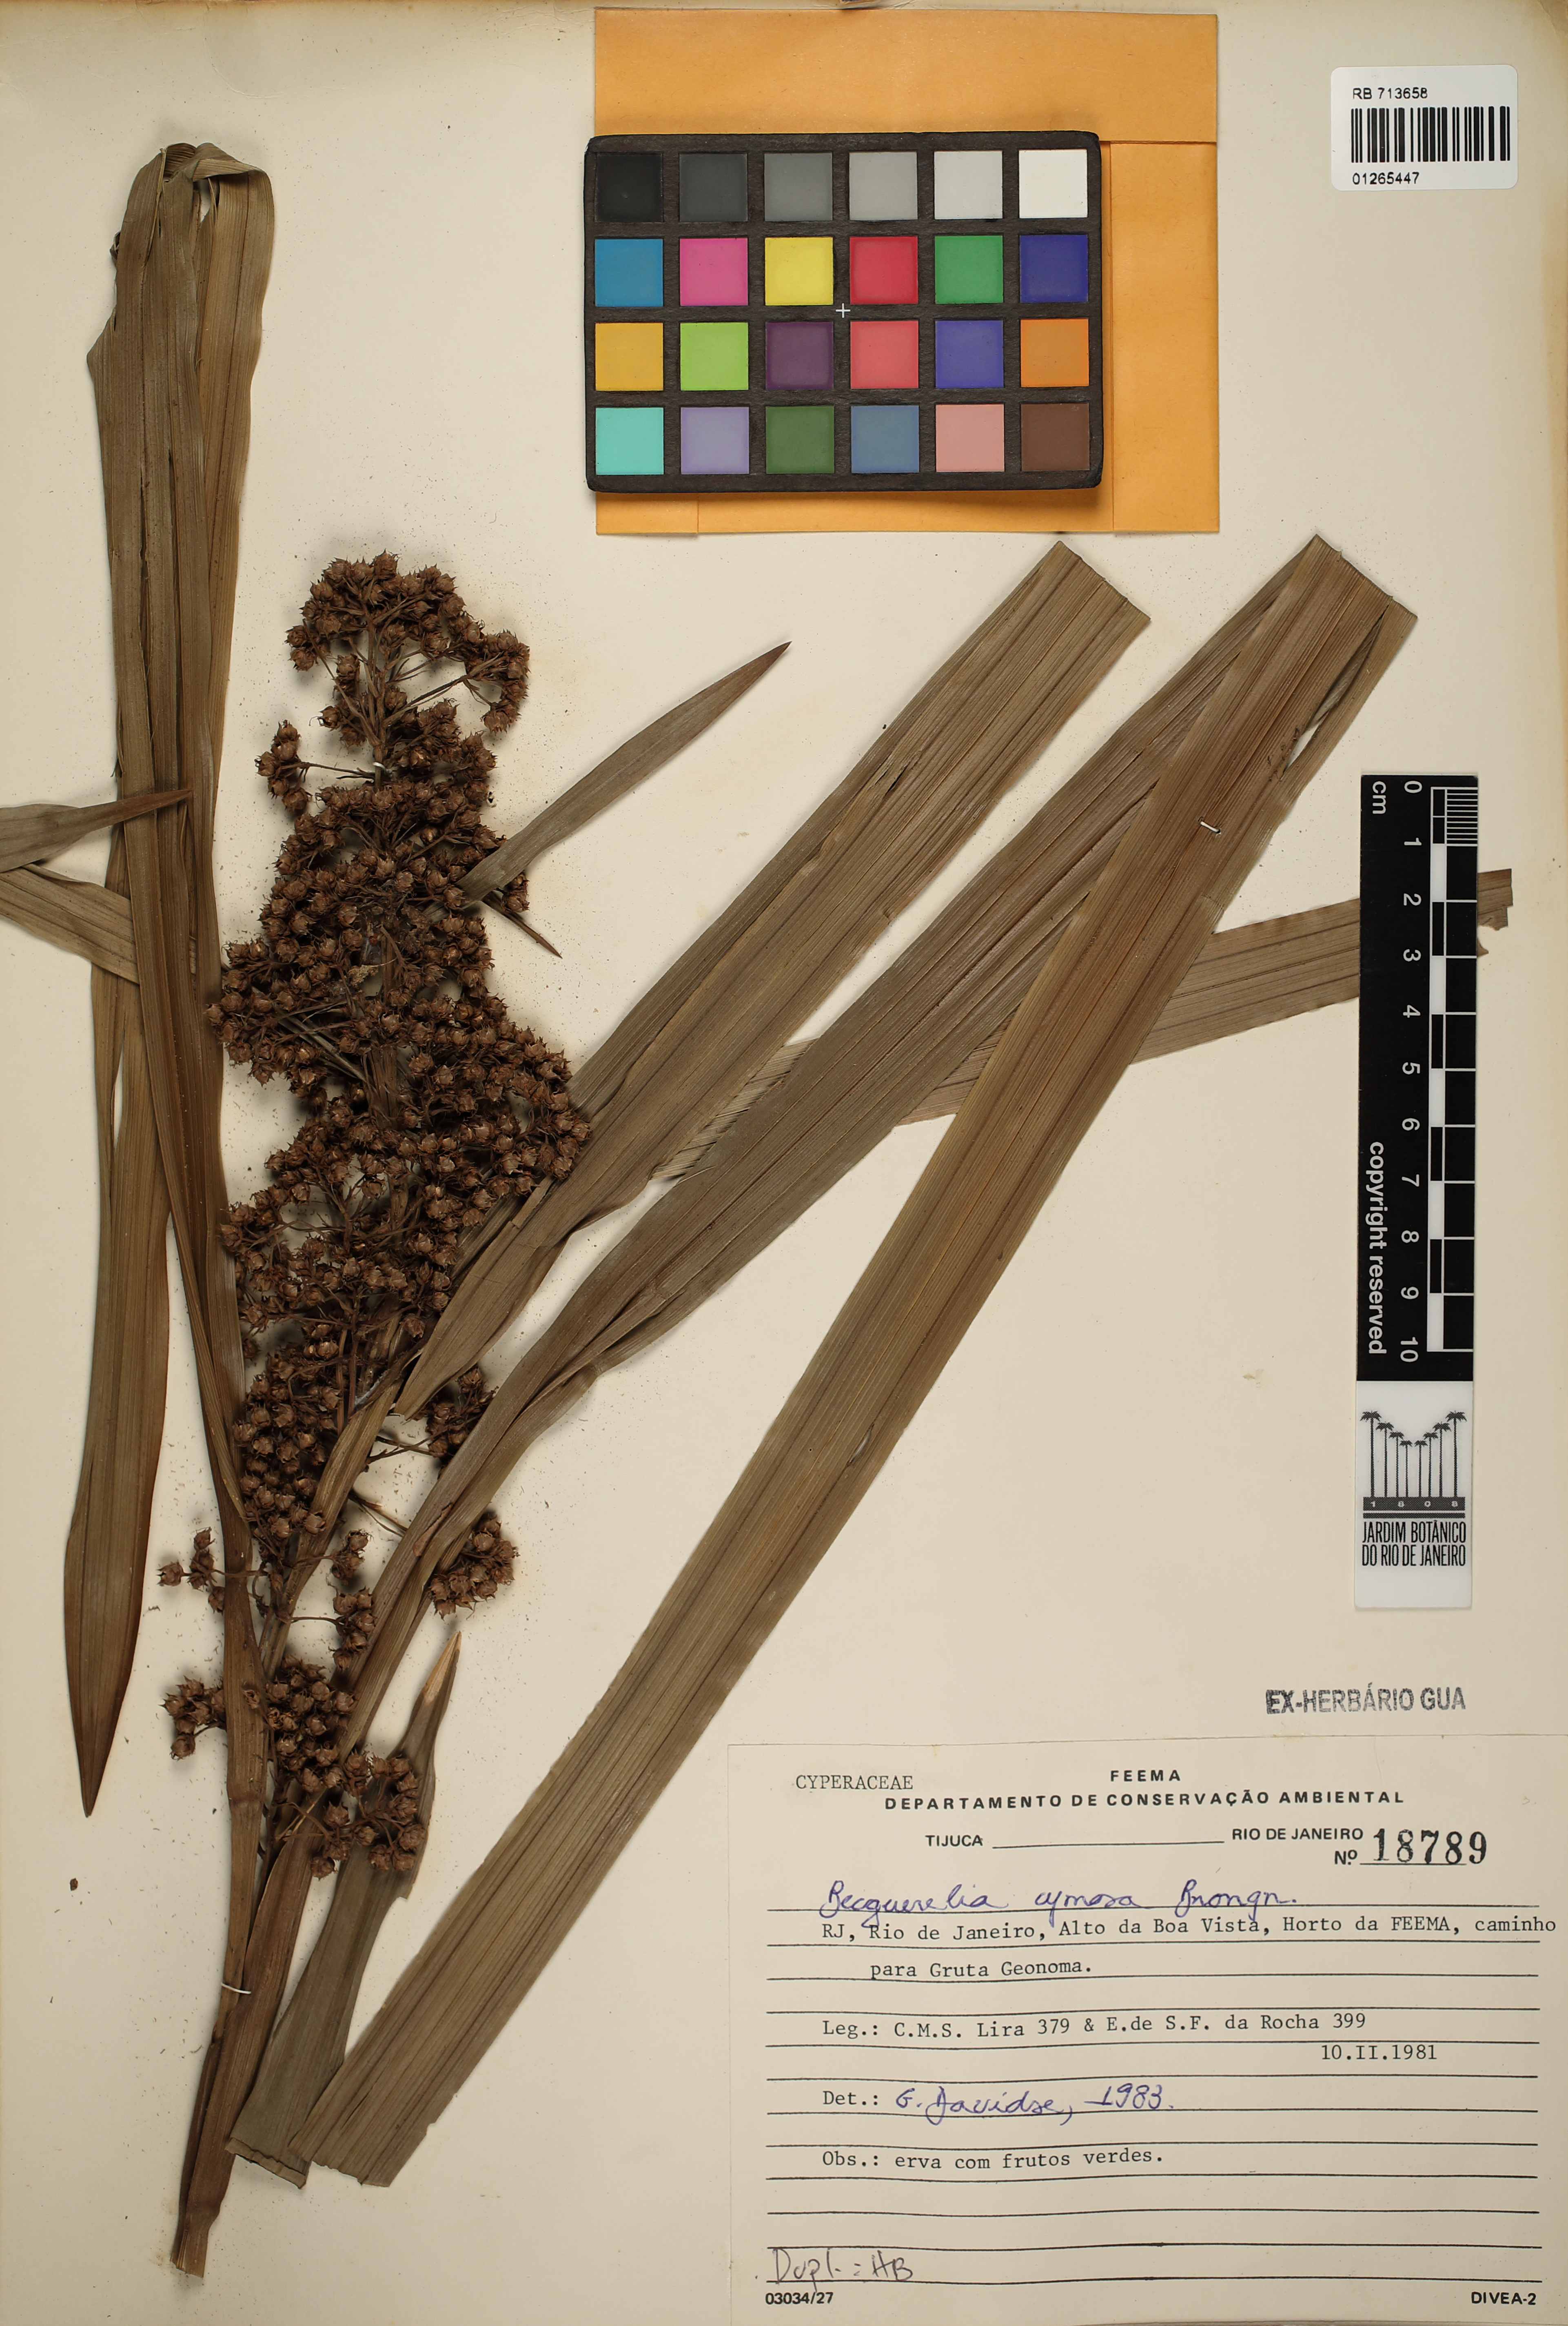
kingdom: Plantae
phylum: Tracheophyta
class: Liliopsida
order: Poales
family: Cyperaceae
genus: Becquerelia
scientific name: Becquerelia cymosa
